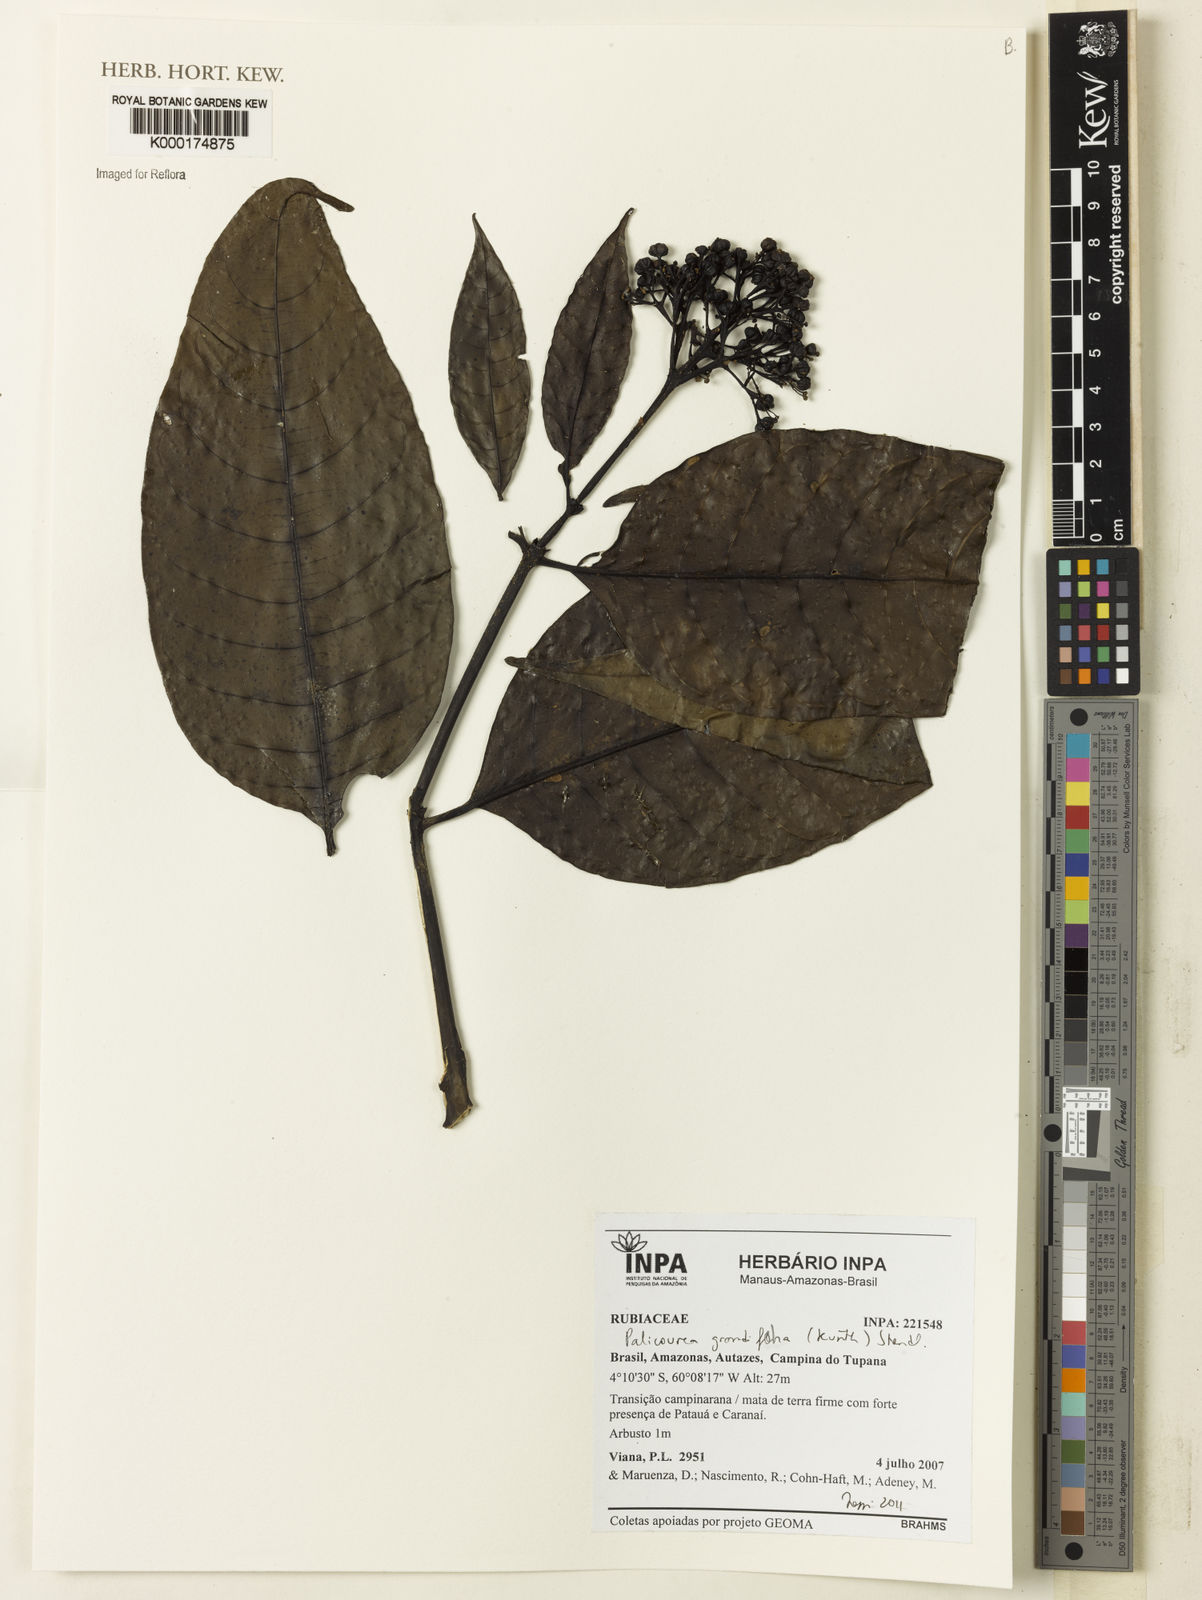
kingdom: Plantae
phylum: Tracheophyta
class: Magnoliopsida
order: Gentianales
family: Rubiaceae
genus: Palicourea
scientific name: Palicourea grandiflora
